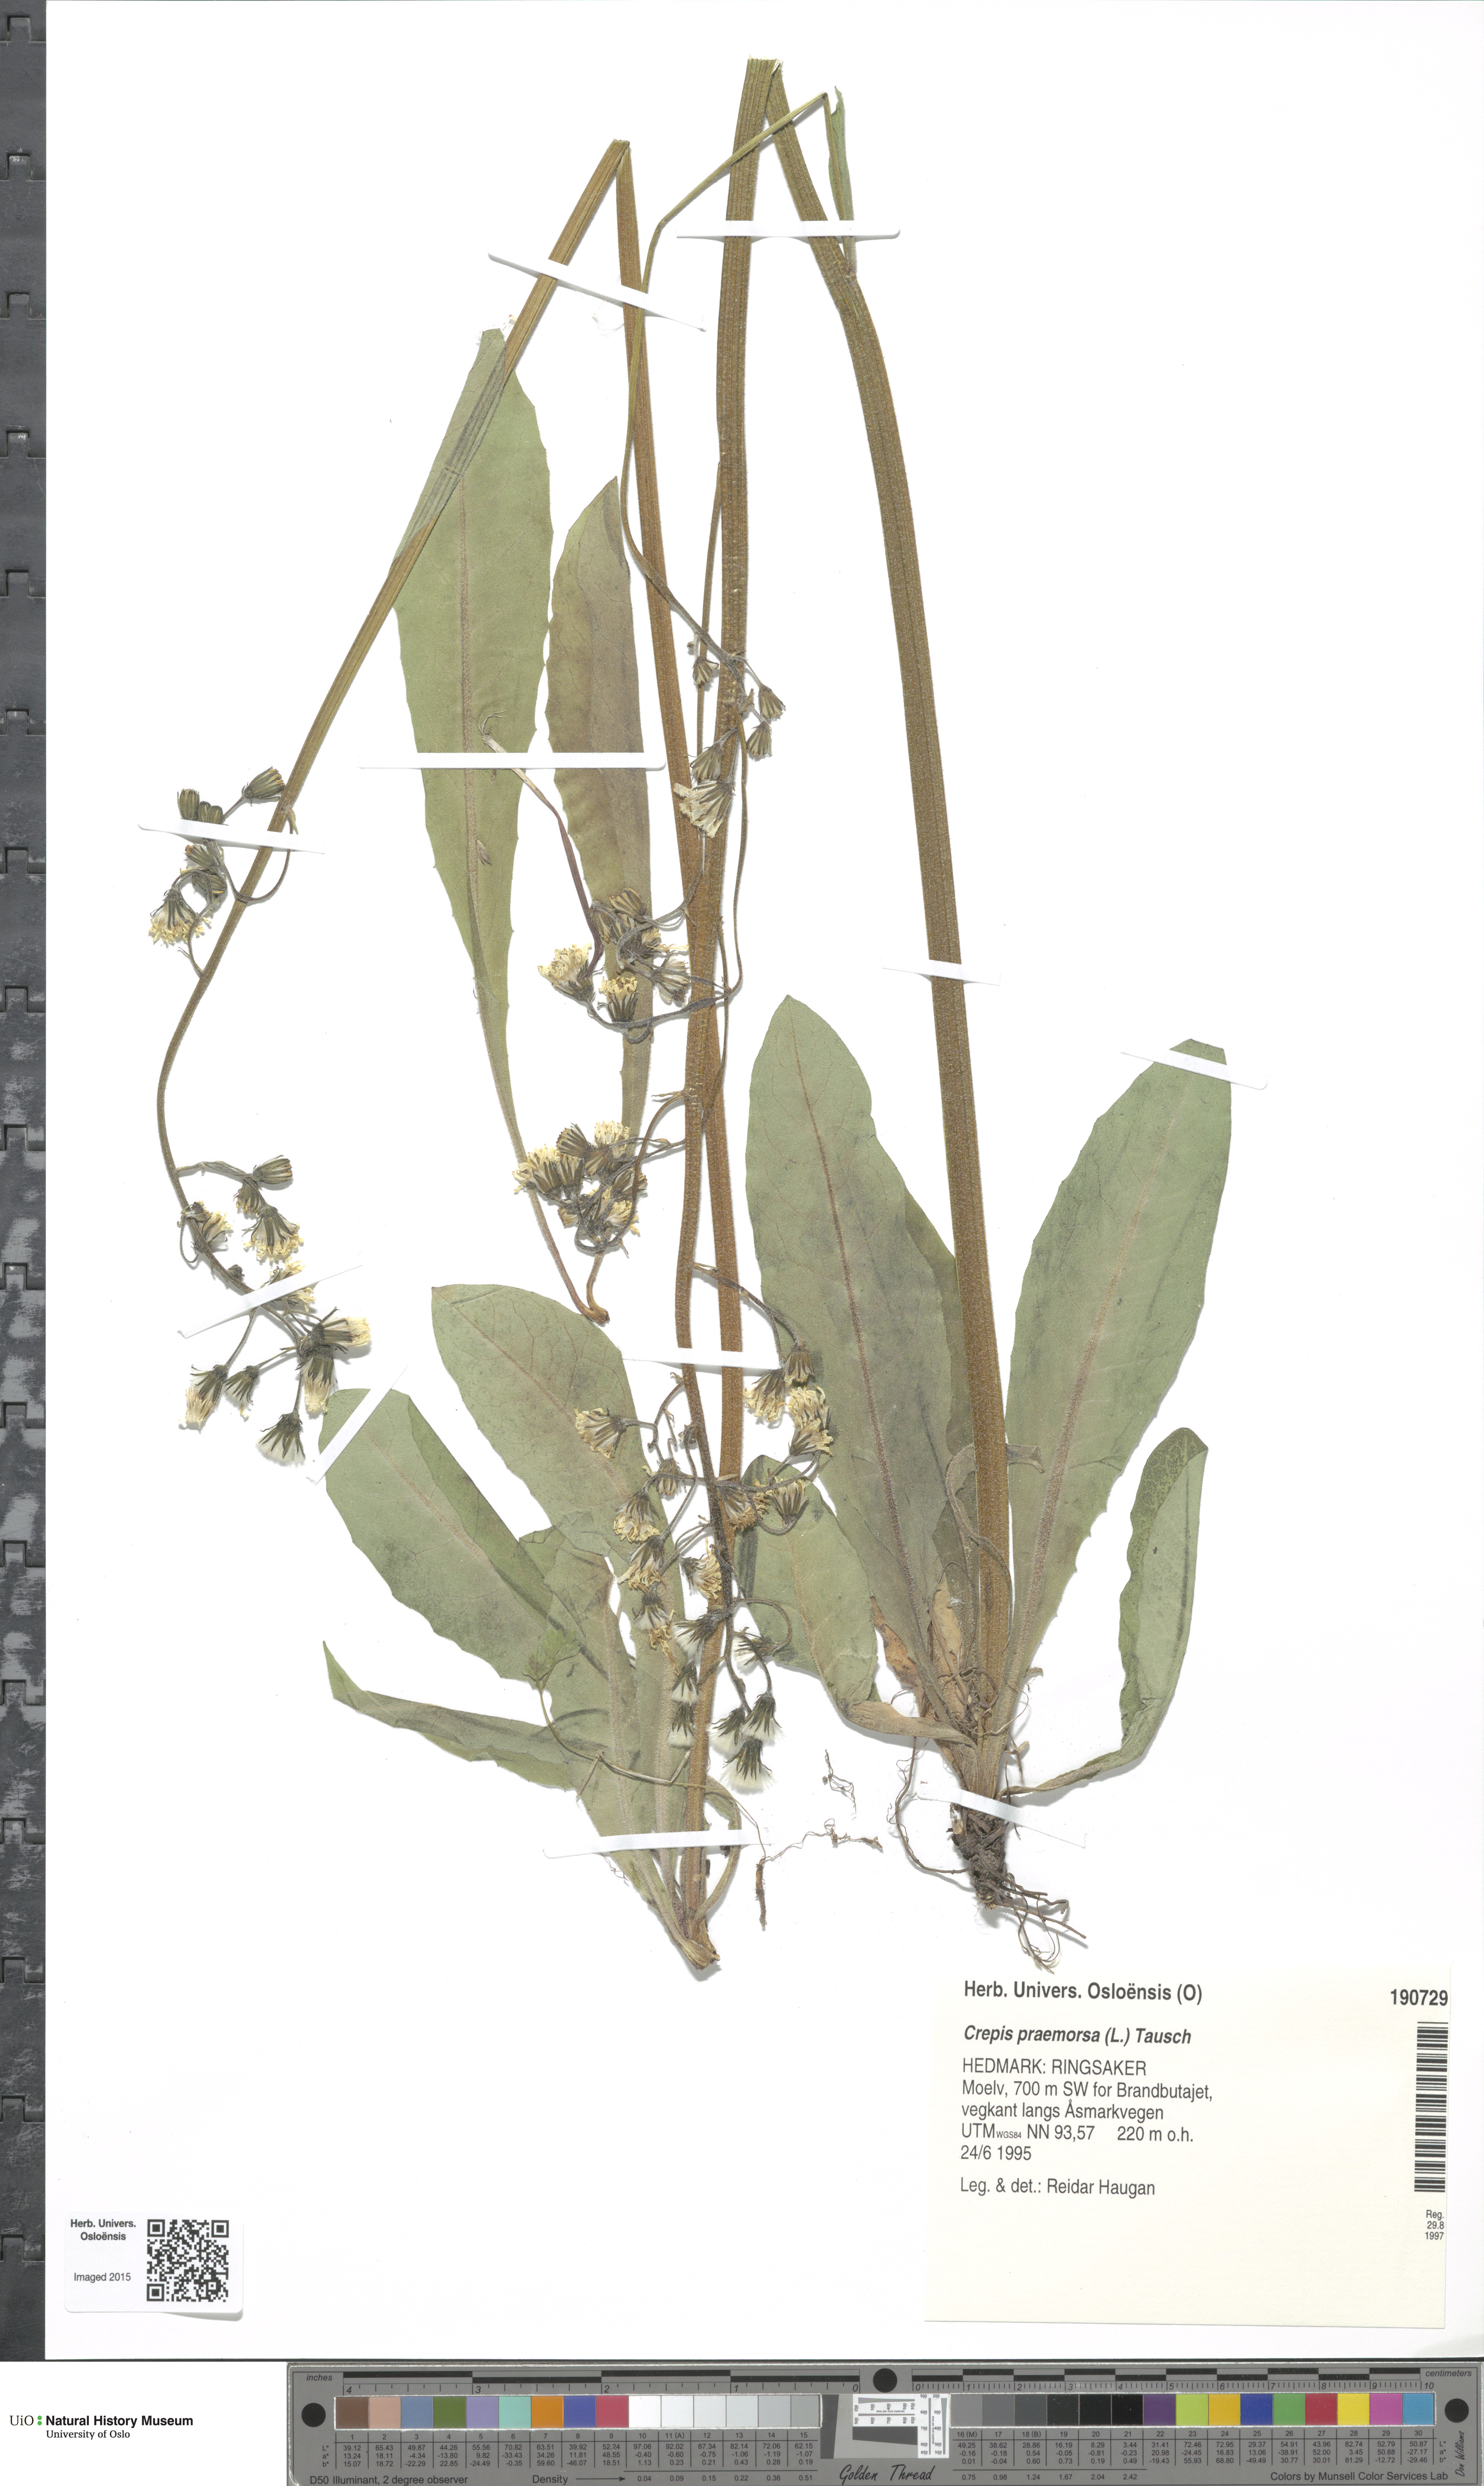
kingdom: Plantae
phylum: Tracheophyta
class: Magnoliopsida
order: Asterales
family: Asteraceae
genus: Crepis
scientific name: Crepis praemorsa
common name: Leafless hawk's-beard
